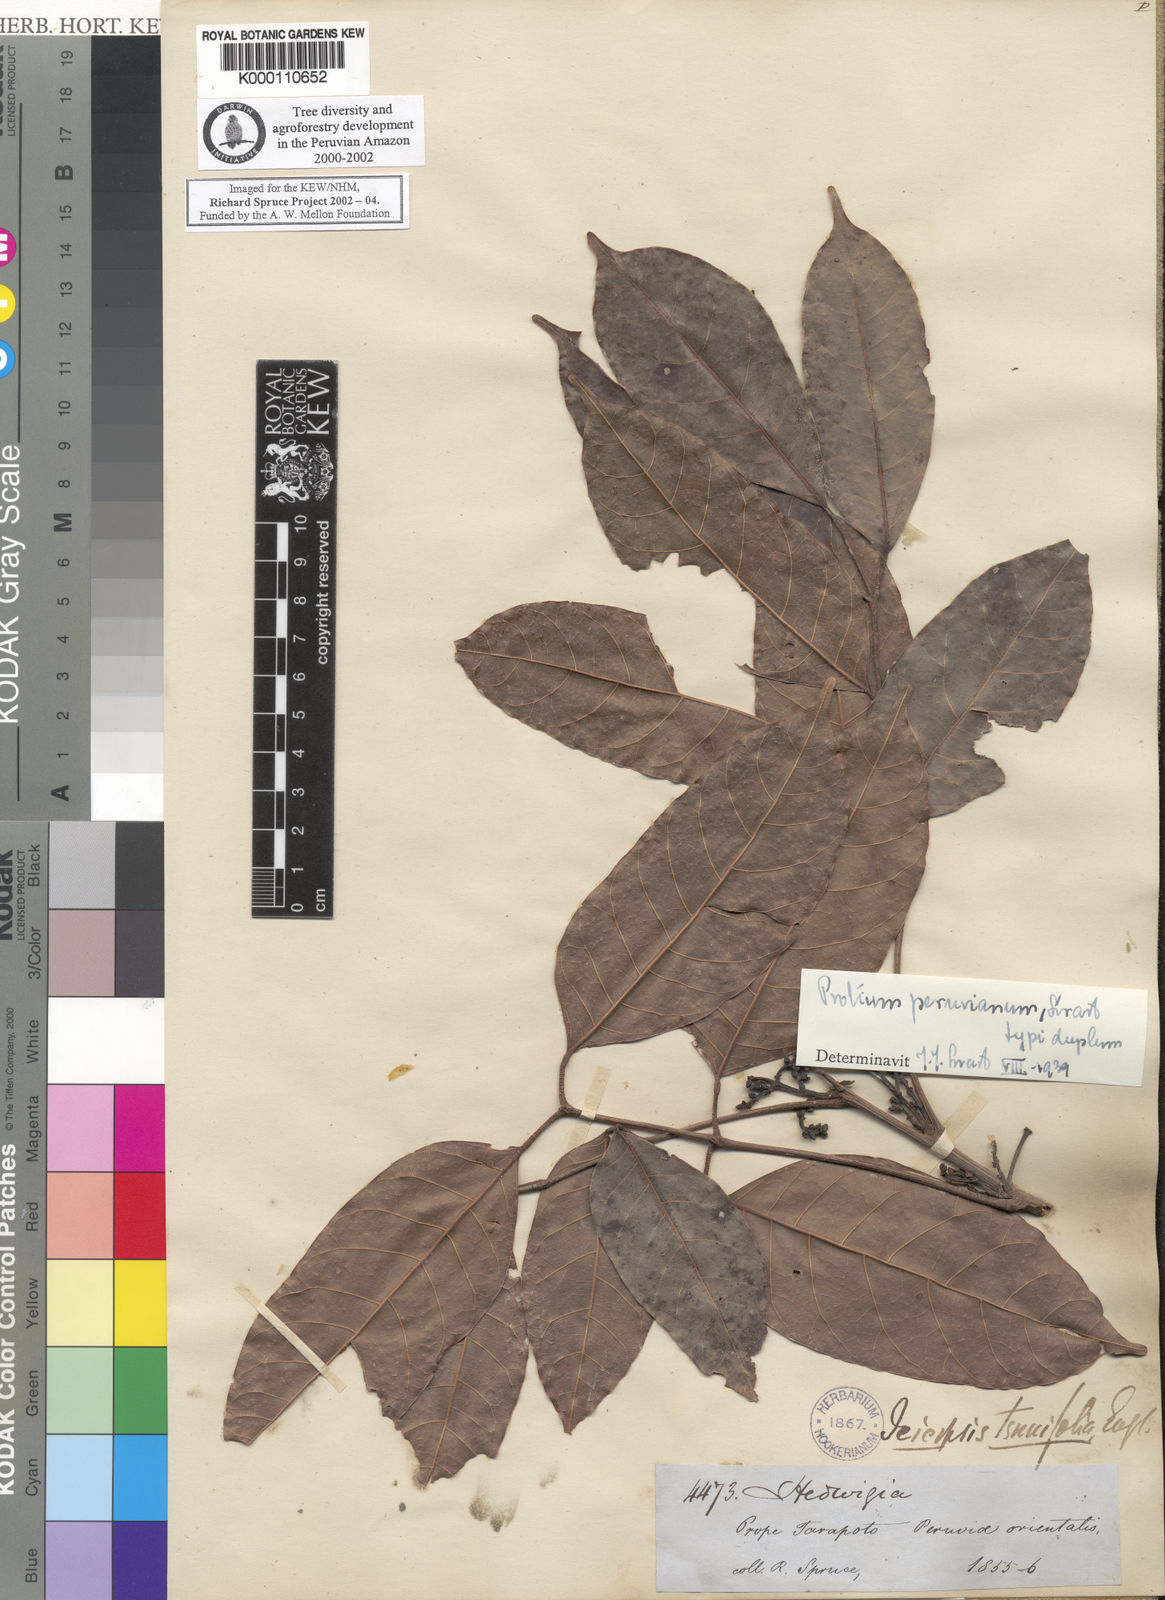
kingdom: Plantae
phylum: Tracheophyta
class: Magnoliopsida
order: Sapindales
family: Burseraceae
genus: Protium
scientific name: Protium sagotianum
